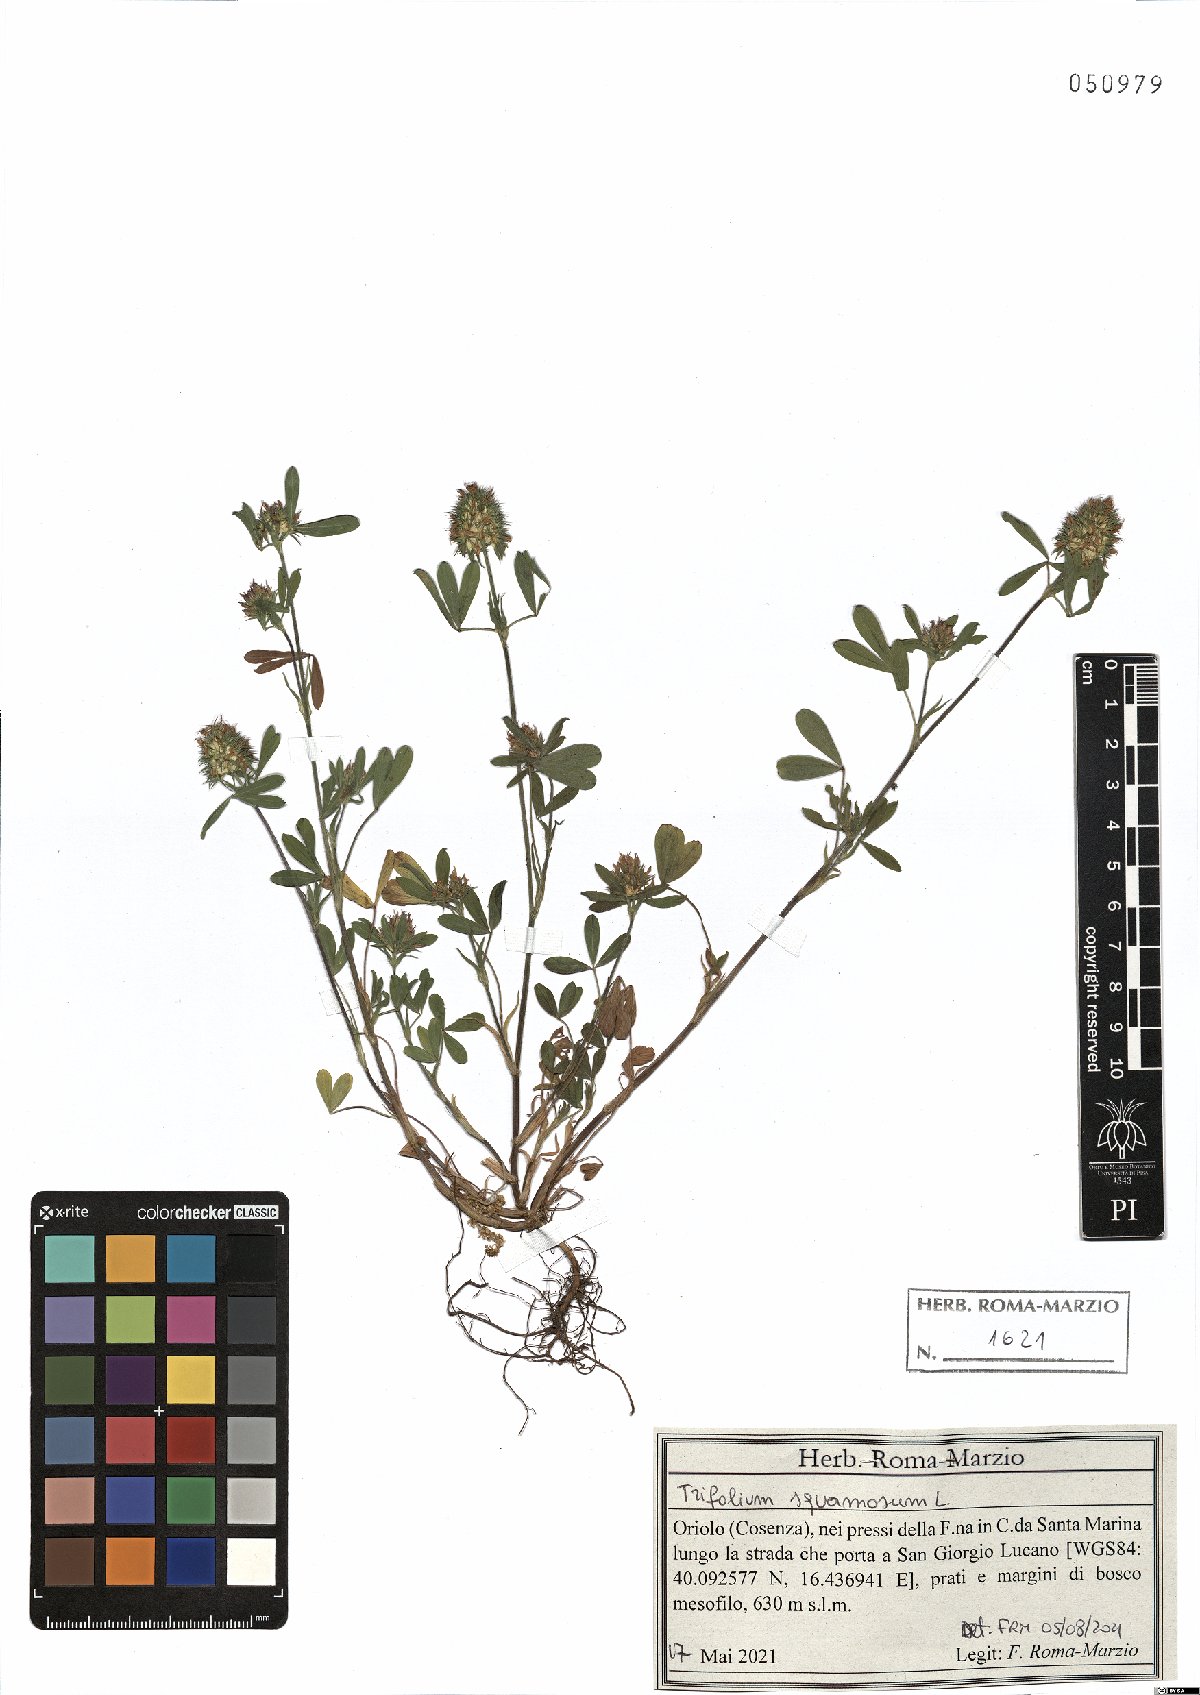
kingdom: Plantae
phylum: Tracheophyta
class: Magnoliopsida
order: Fabales
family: Fabaceae
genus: Trifolium
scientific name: Trifolium squamosum
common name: Sea clover
